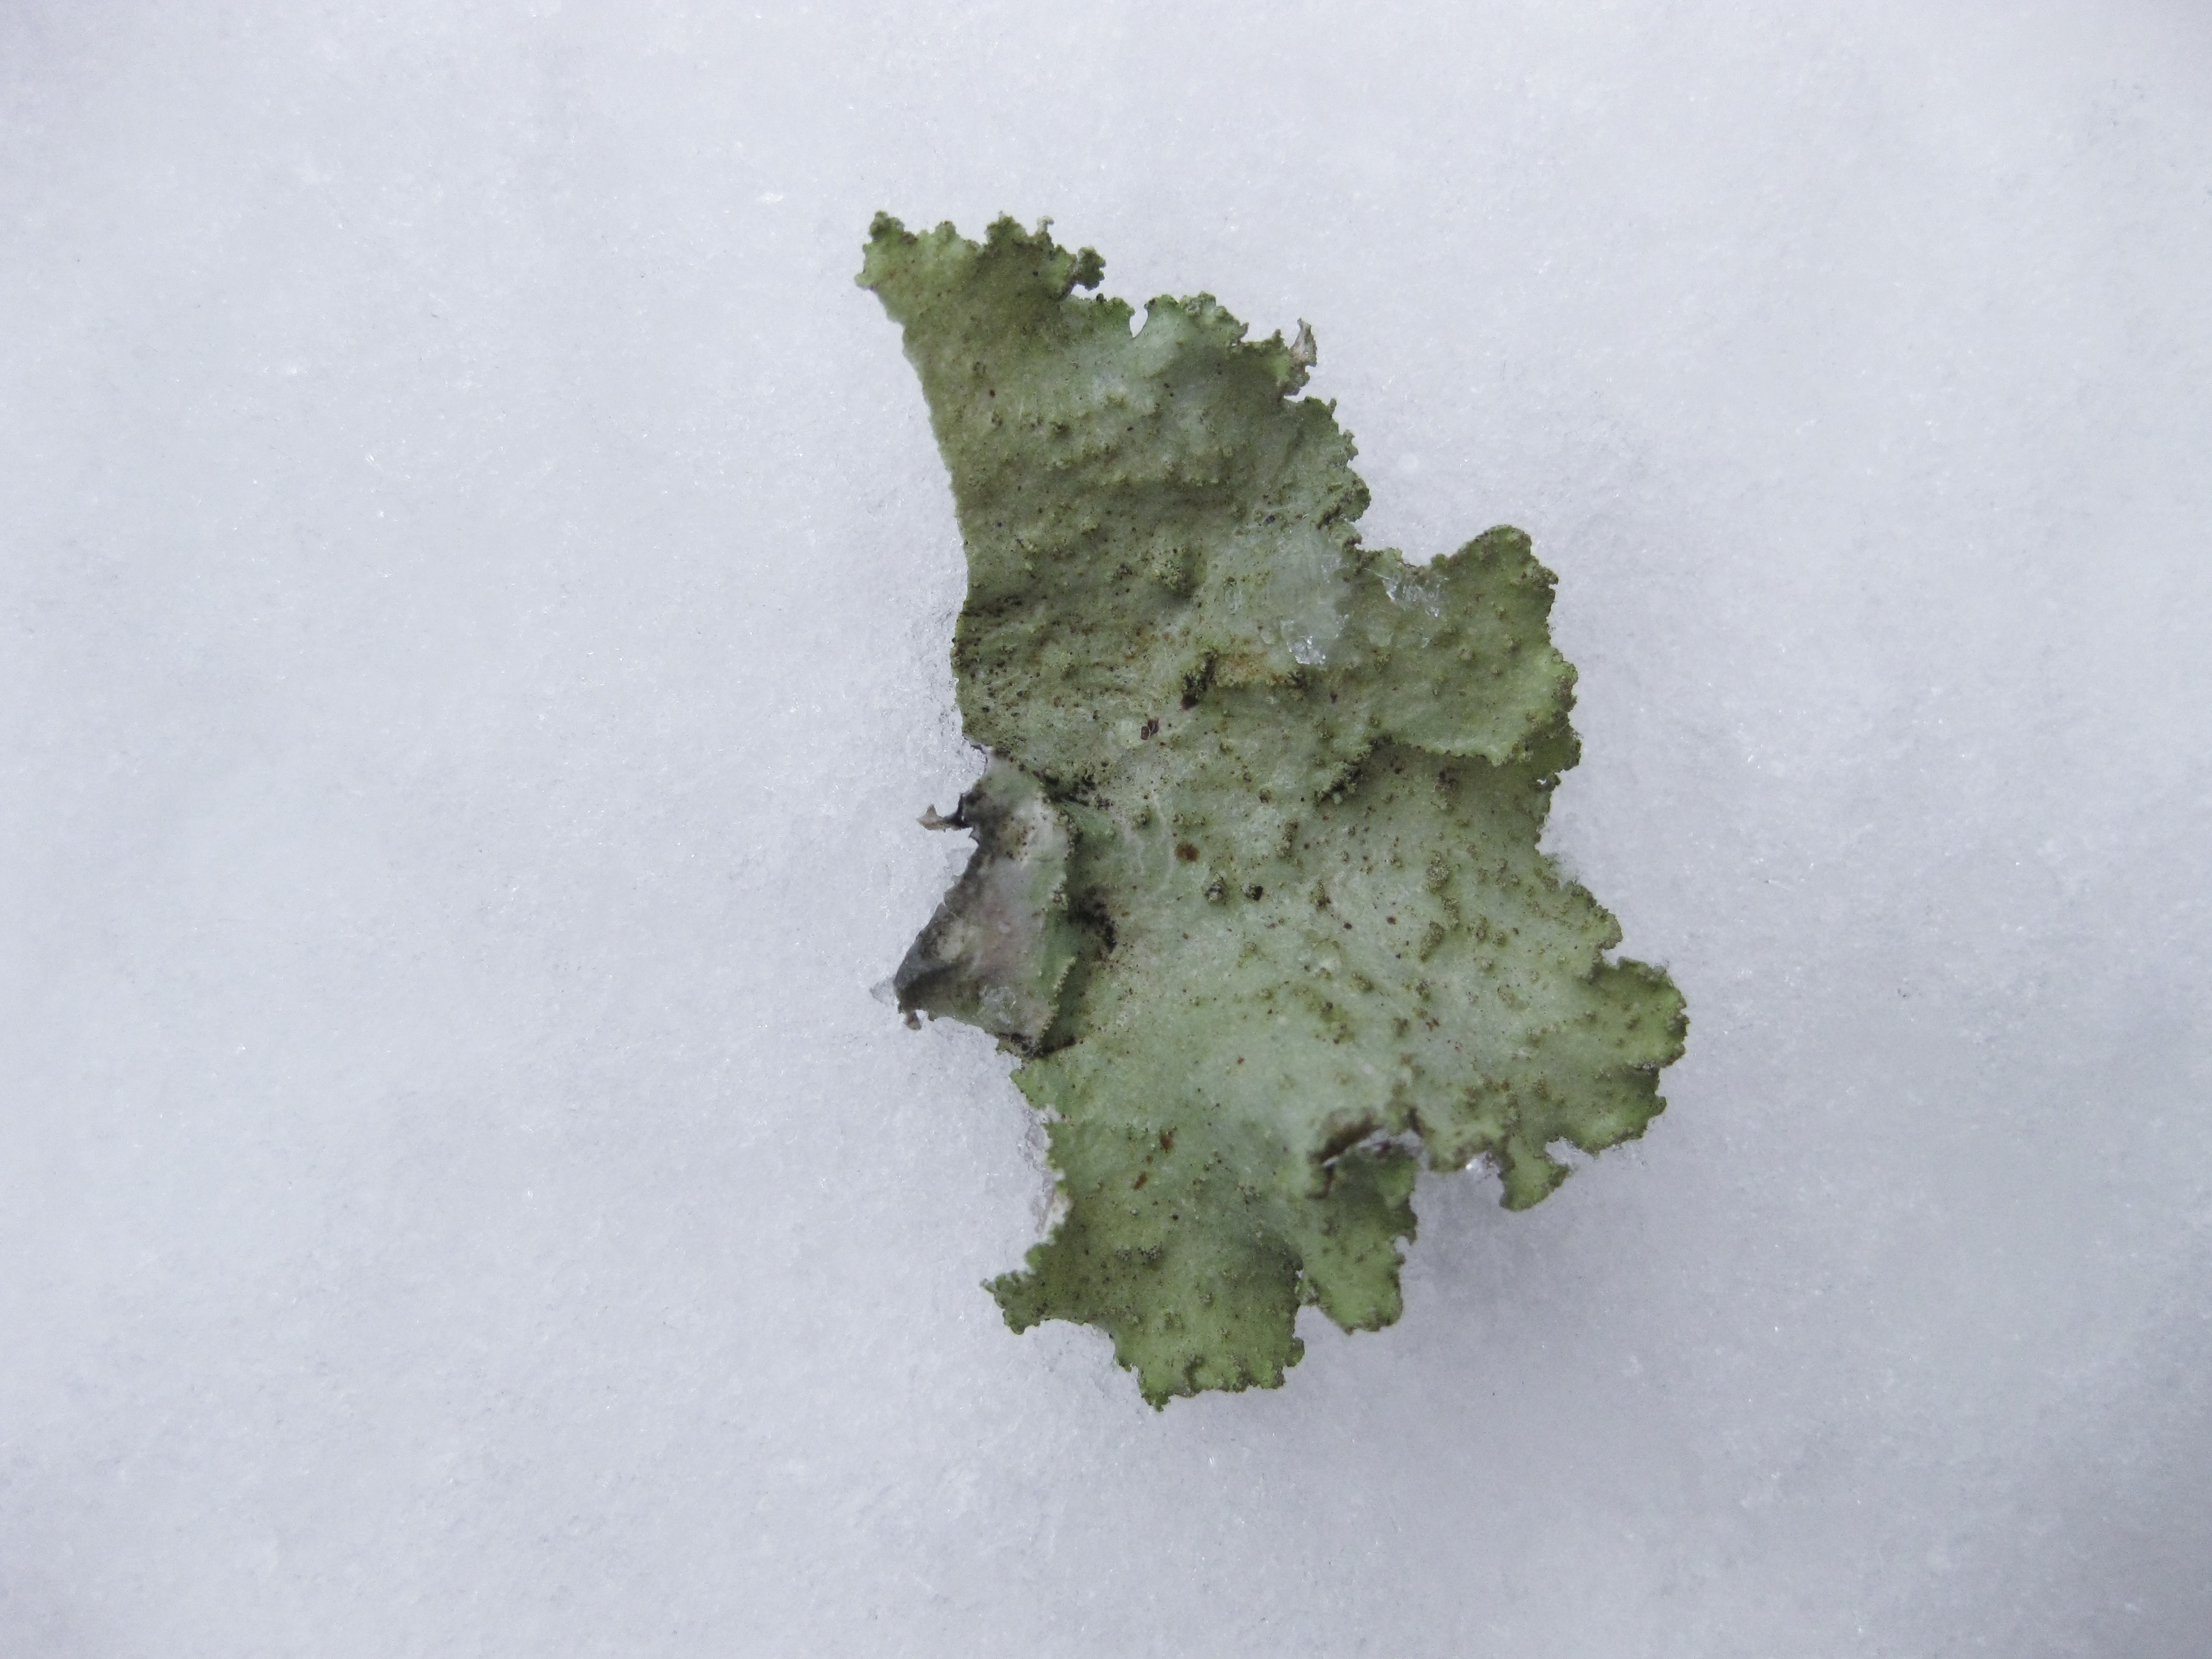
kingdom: Fungi
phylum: Ascomycota
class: Lecanoromycetes
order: Lecanorales
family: Parmeliaceae
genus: Platismatia
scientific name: Platismatia glauca
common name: Varied rag lichen
